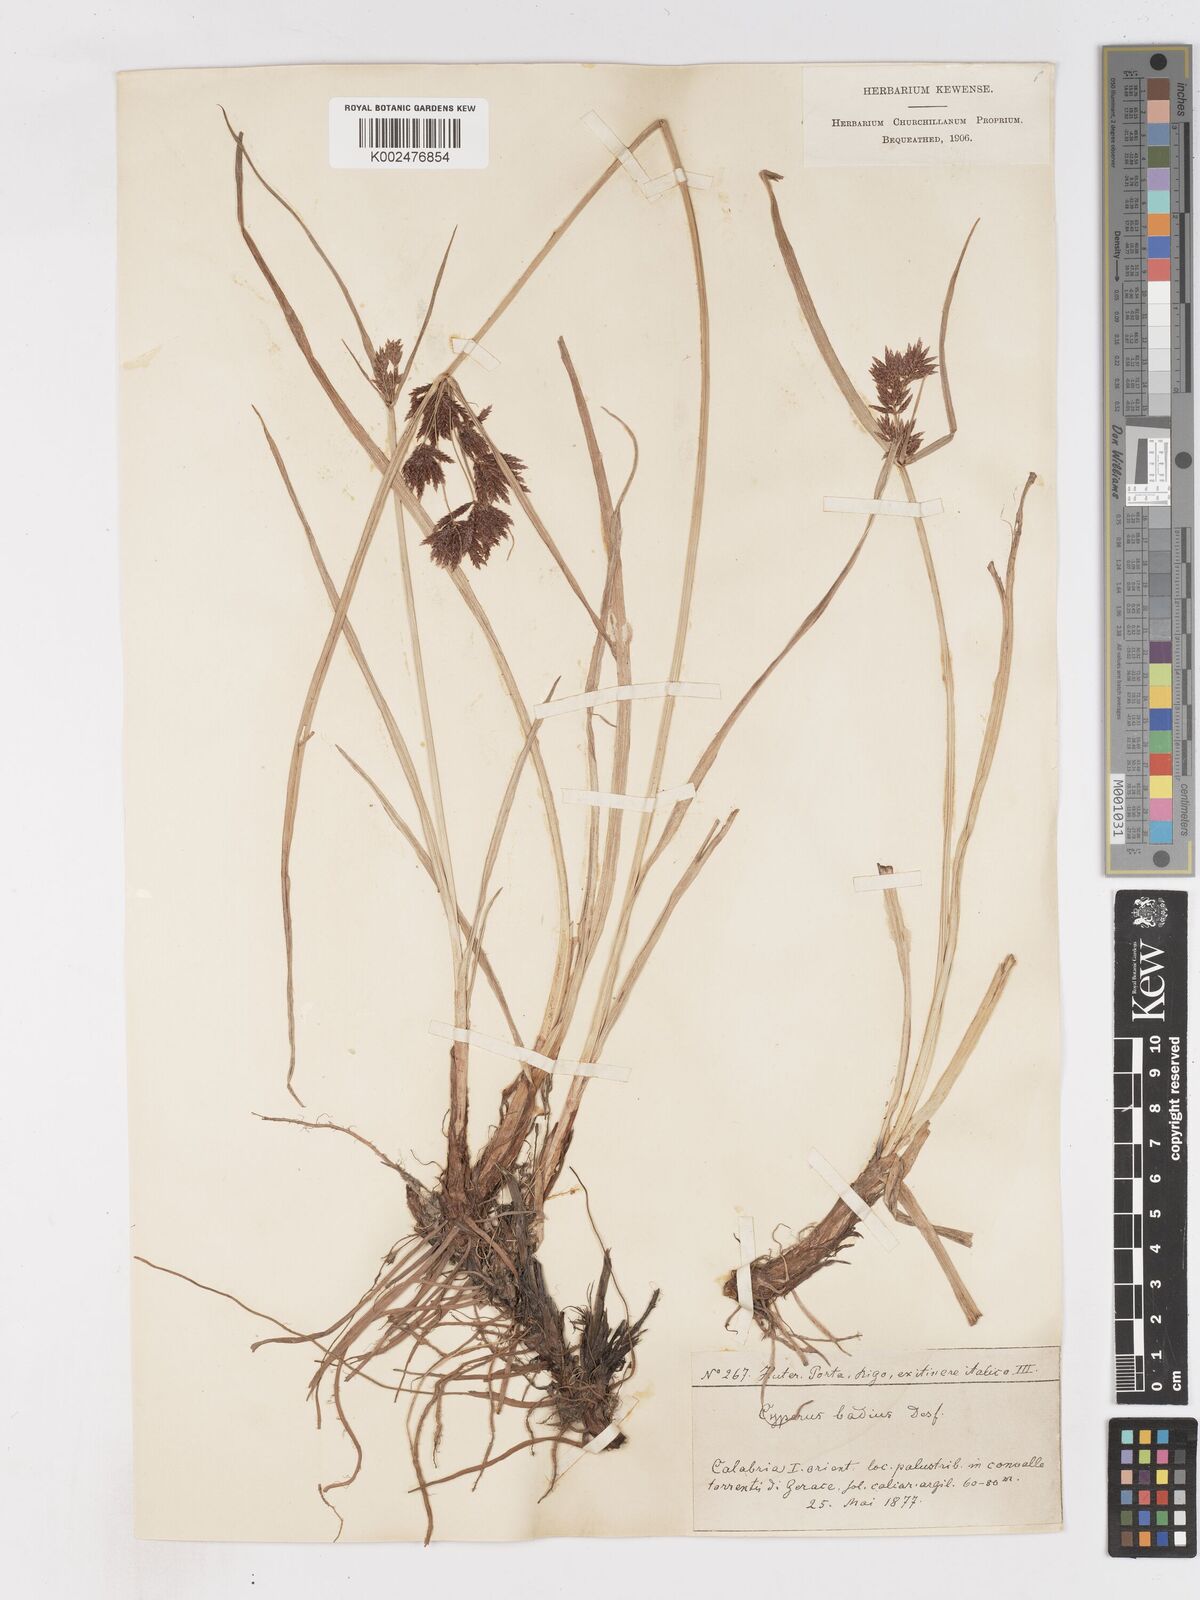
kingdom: Plantae
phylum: Tracheophyta
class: Liliopsida
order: Poales
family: Cyperaceae
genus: Cyperus
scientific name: Cyperus longus
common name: Galingale
